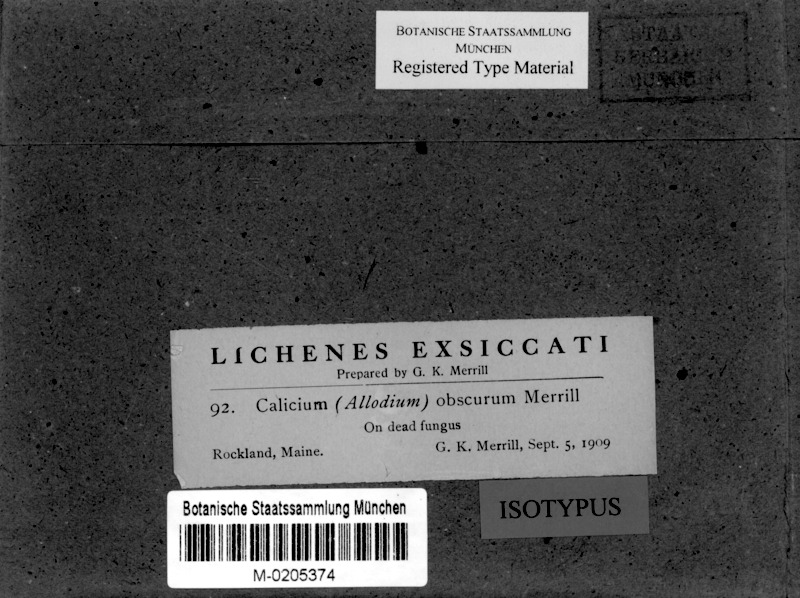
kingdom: Fungi
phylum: Ascomycota
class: Coniocybomycetes
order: Coniocybales
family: Coniocybaceae
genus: Chaenotheca
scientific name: Chaenotheca obscura
